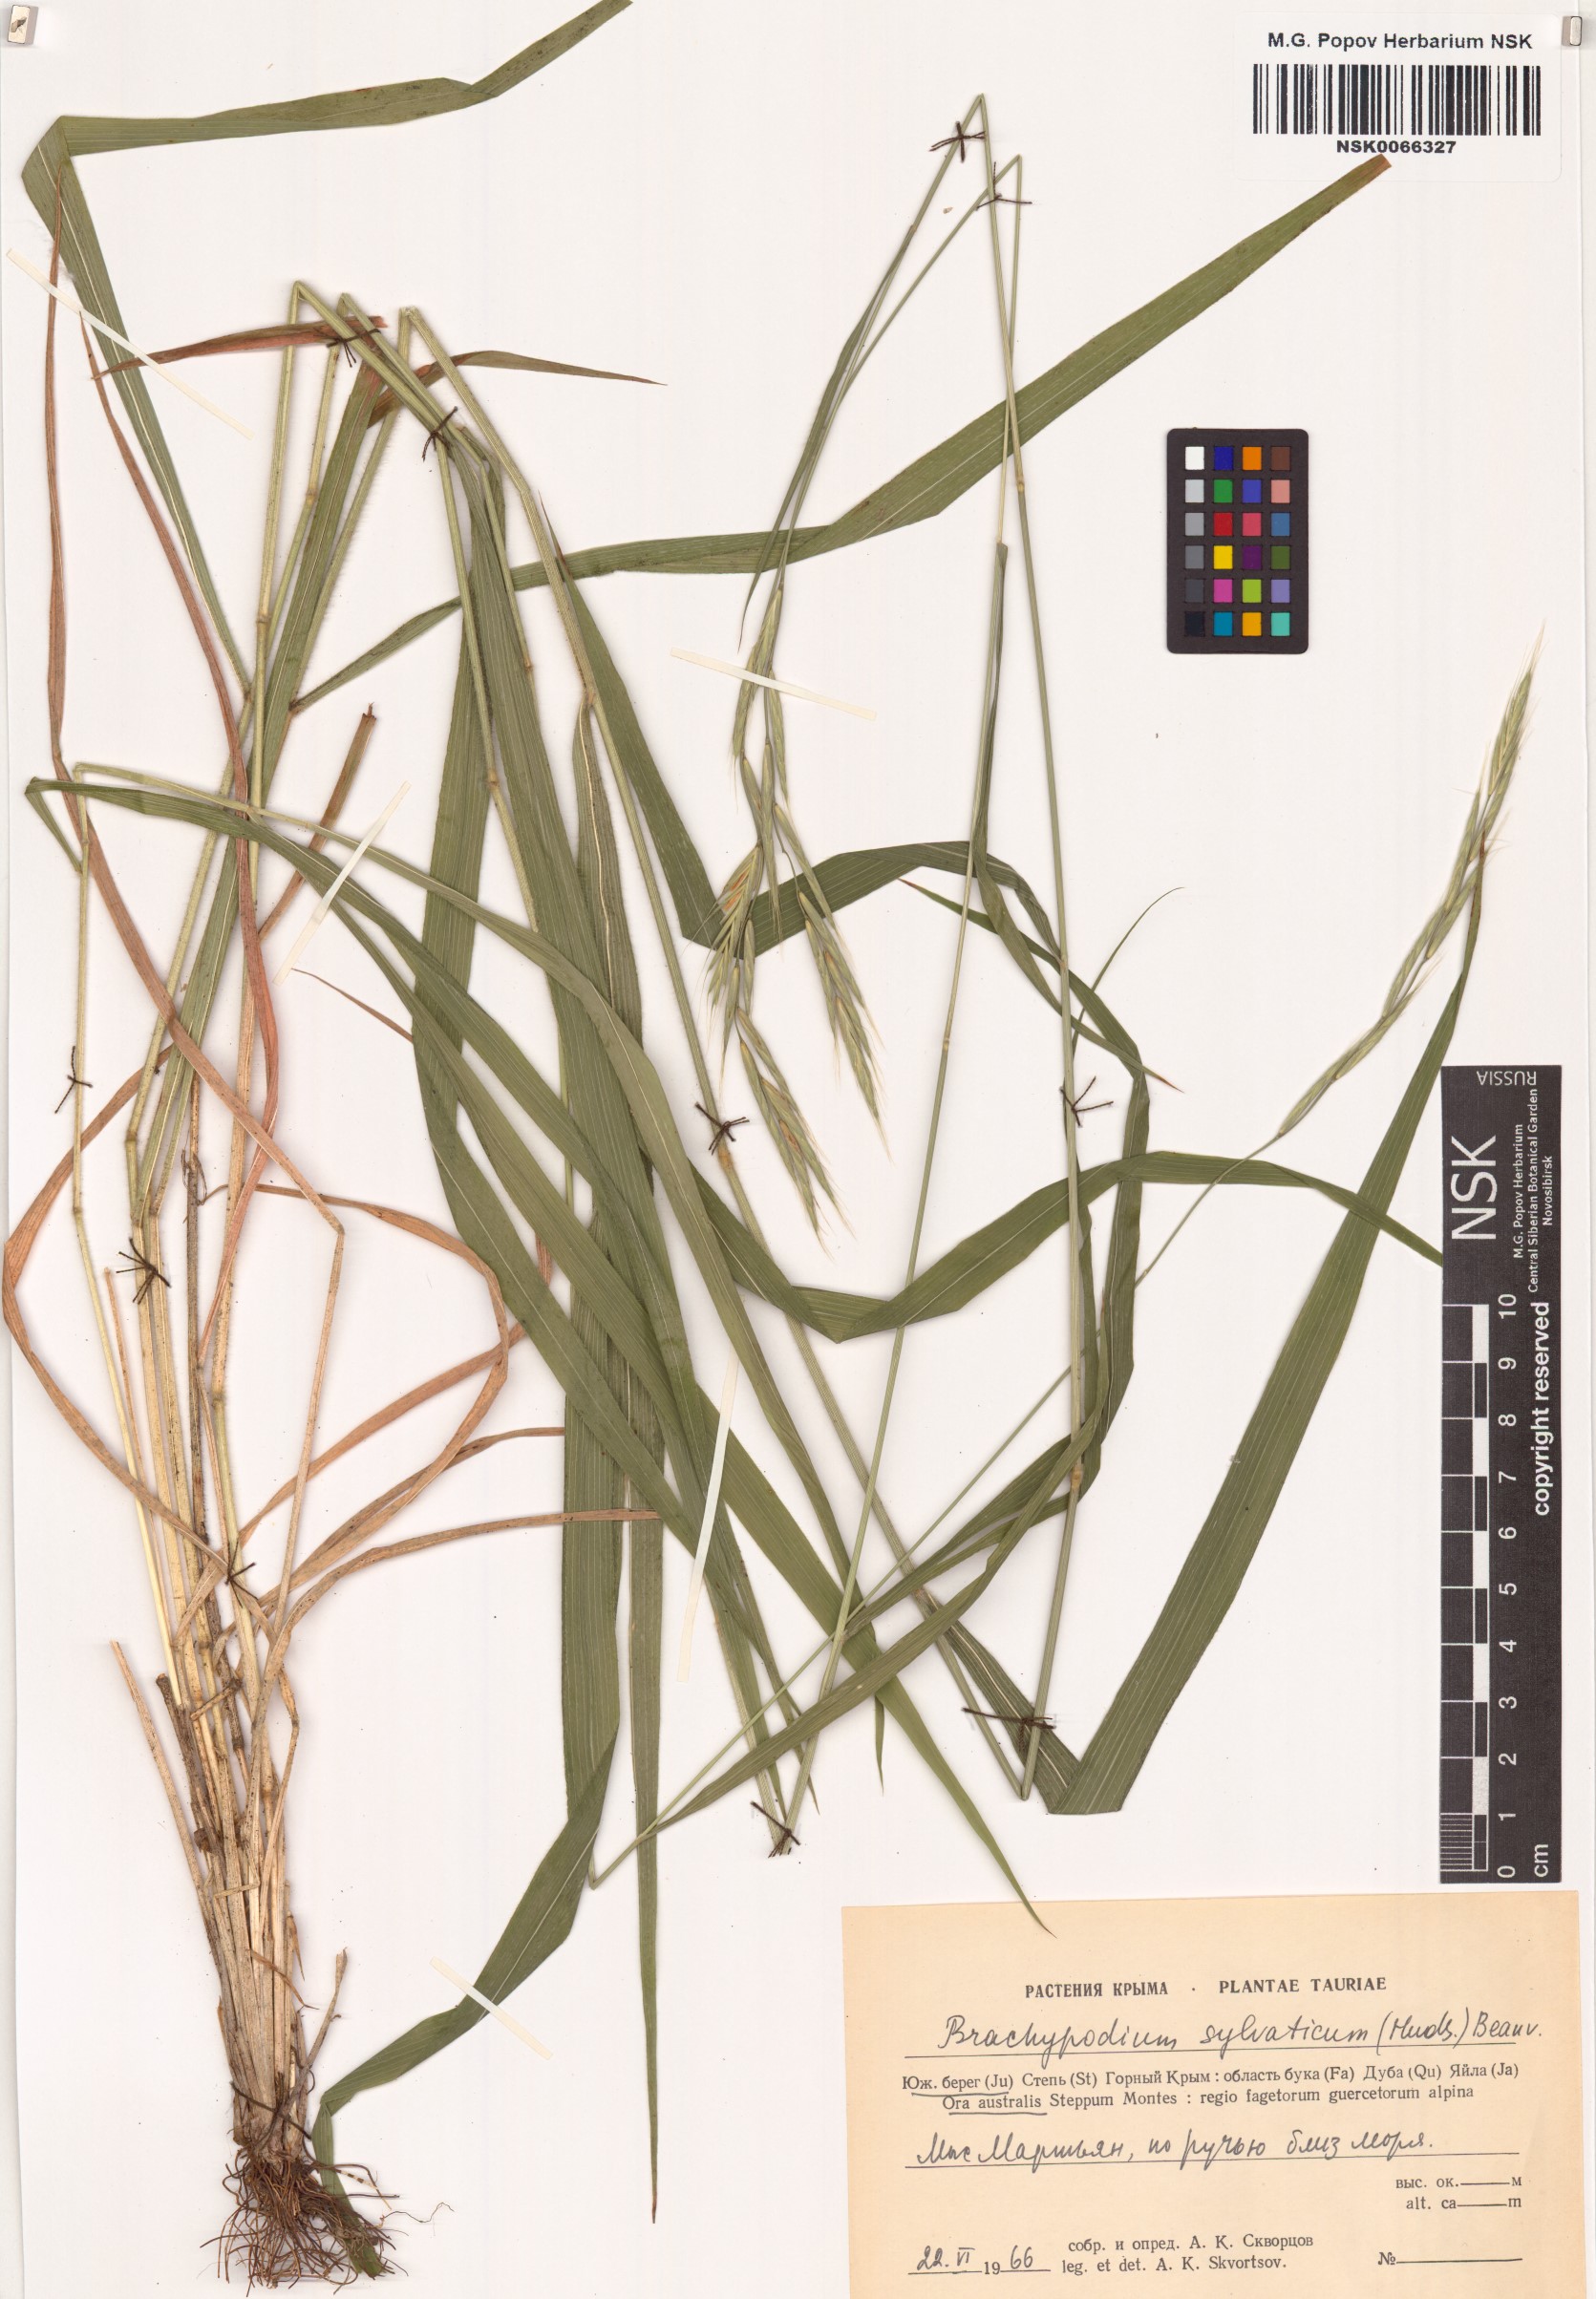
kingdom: Plantae
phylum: Tracheophyta
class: Liliopsida
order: Poales
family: Poaceae
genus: Brachypodium
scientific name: Brachypodium sylvaticum
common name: False-brome
